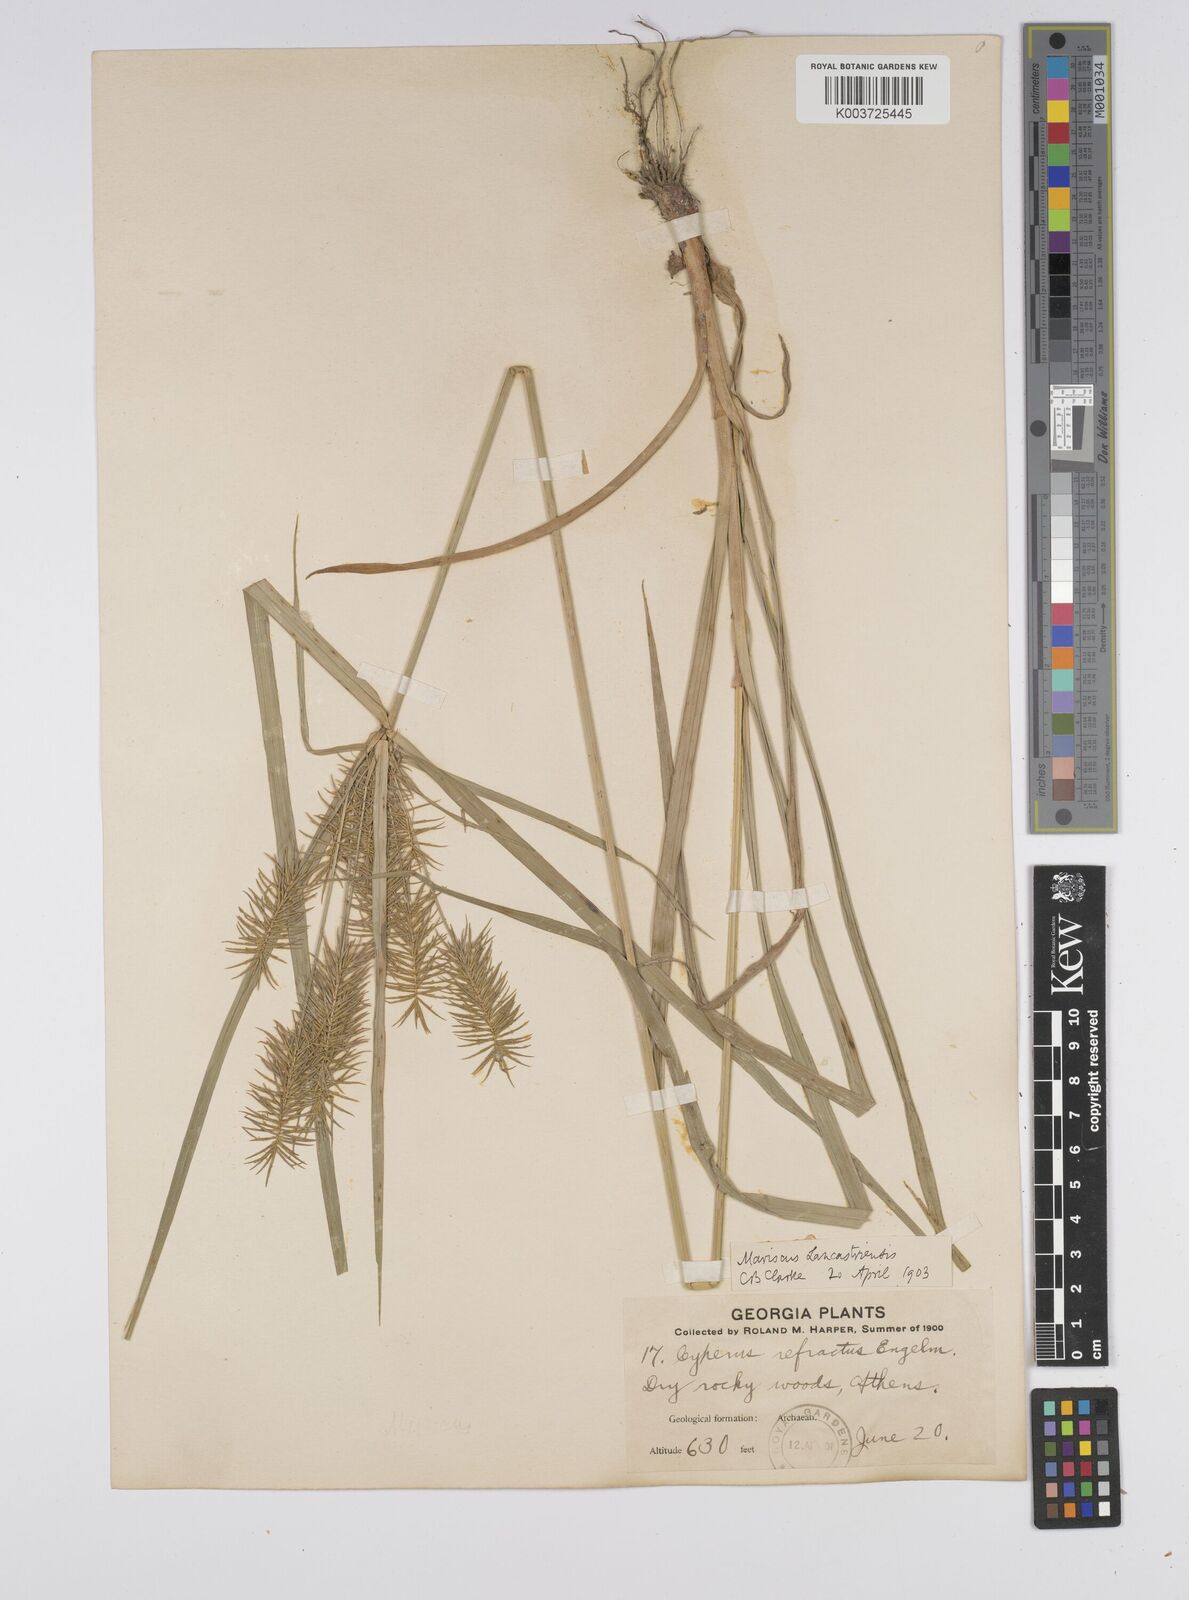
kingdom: Plantae
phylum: Tracheophyta
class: Liliopsida
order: Poales
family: Cyperaceae
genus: Cyperus
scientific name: Cyperus lancastriensis
